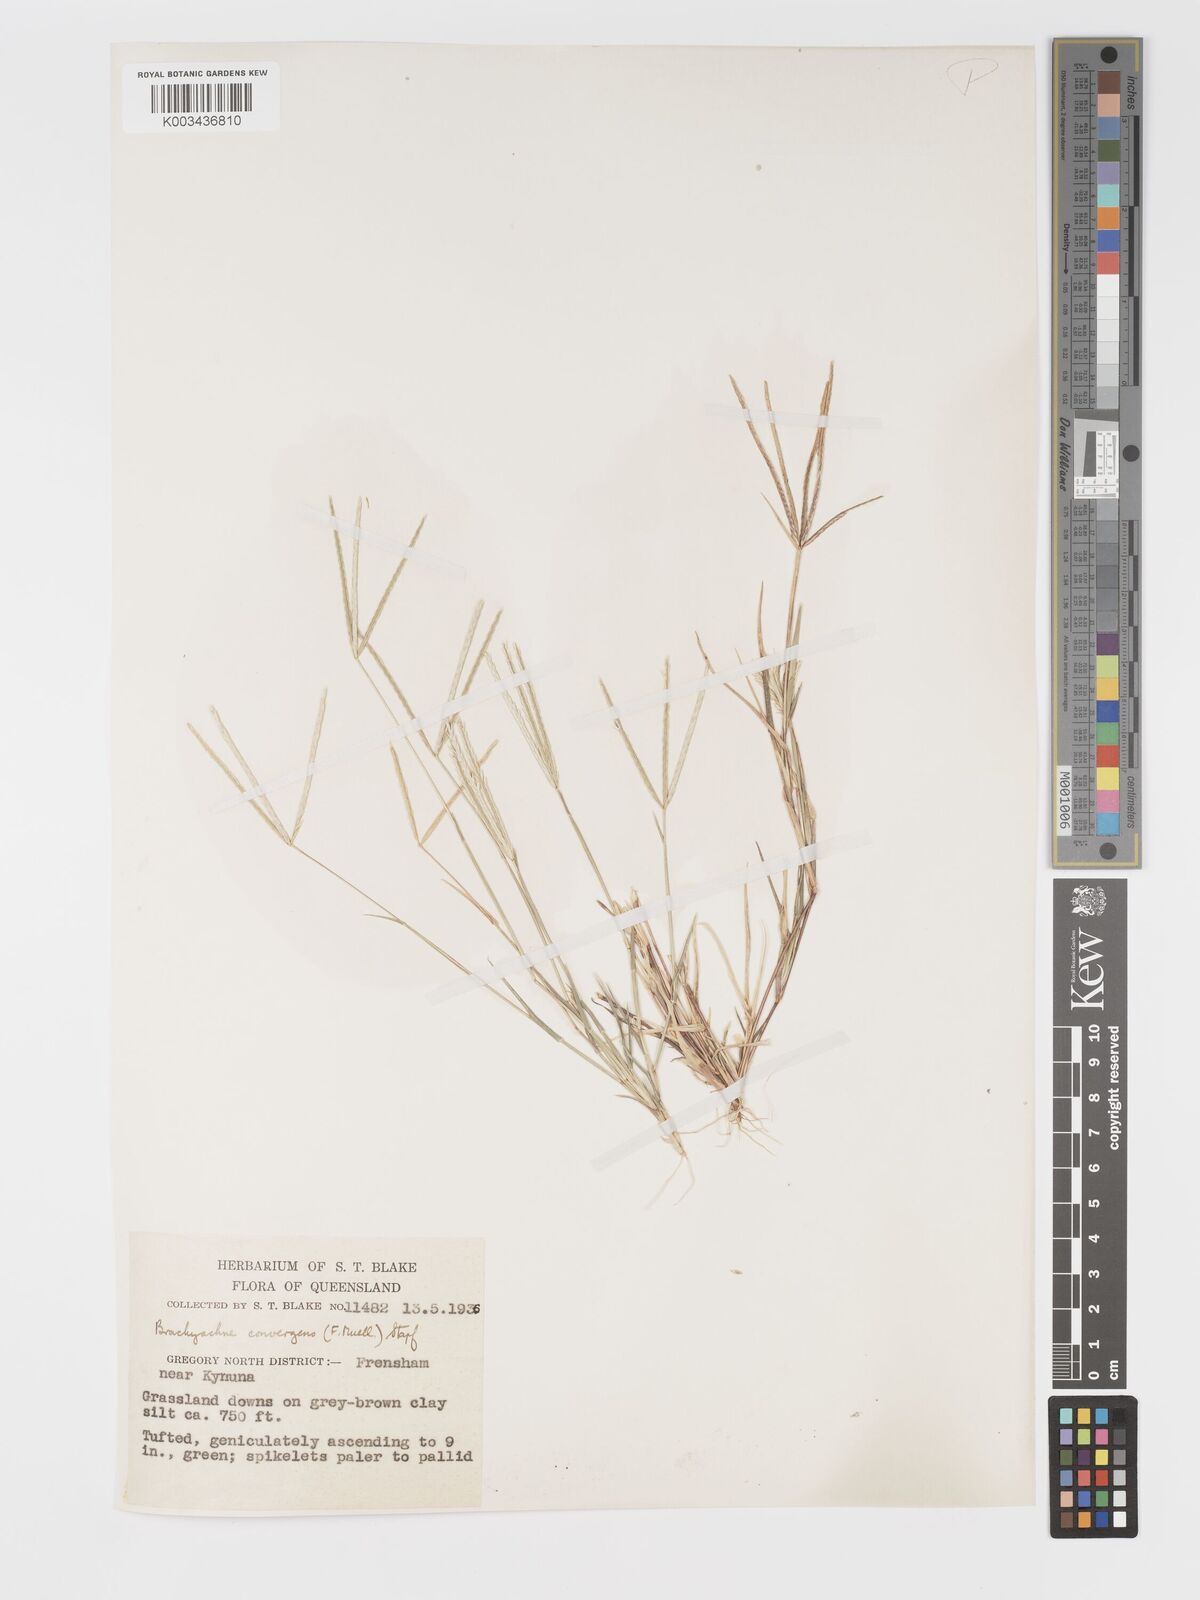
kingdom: Plantae
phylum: Tracheophyta
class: Liliopsida
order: Poales
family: Poaceae
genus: Cynodon
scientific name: Cynodon convergens
